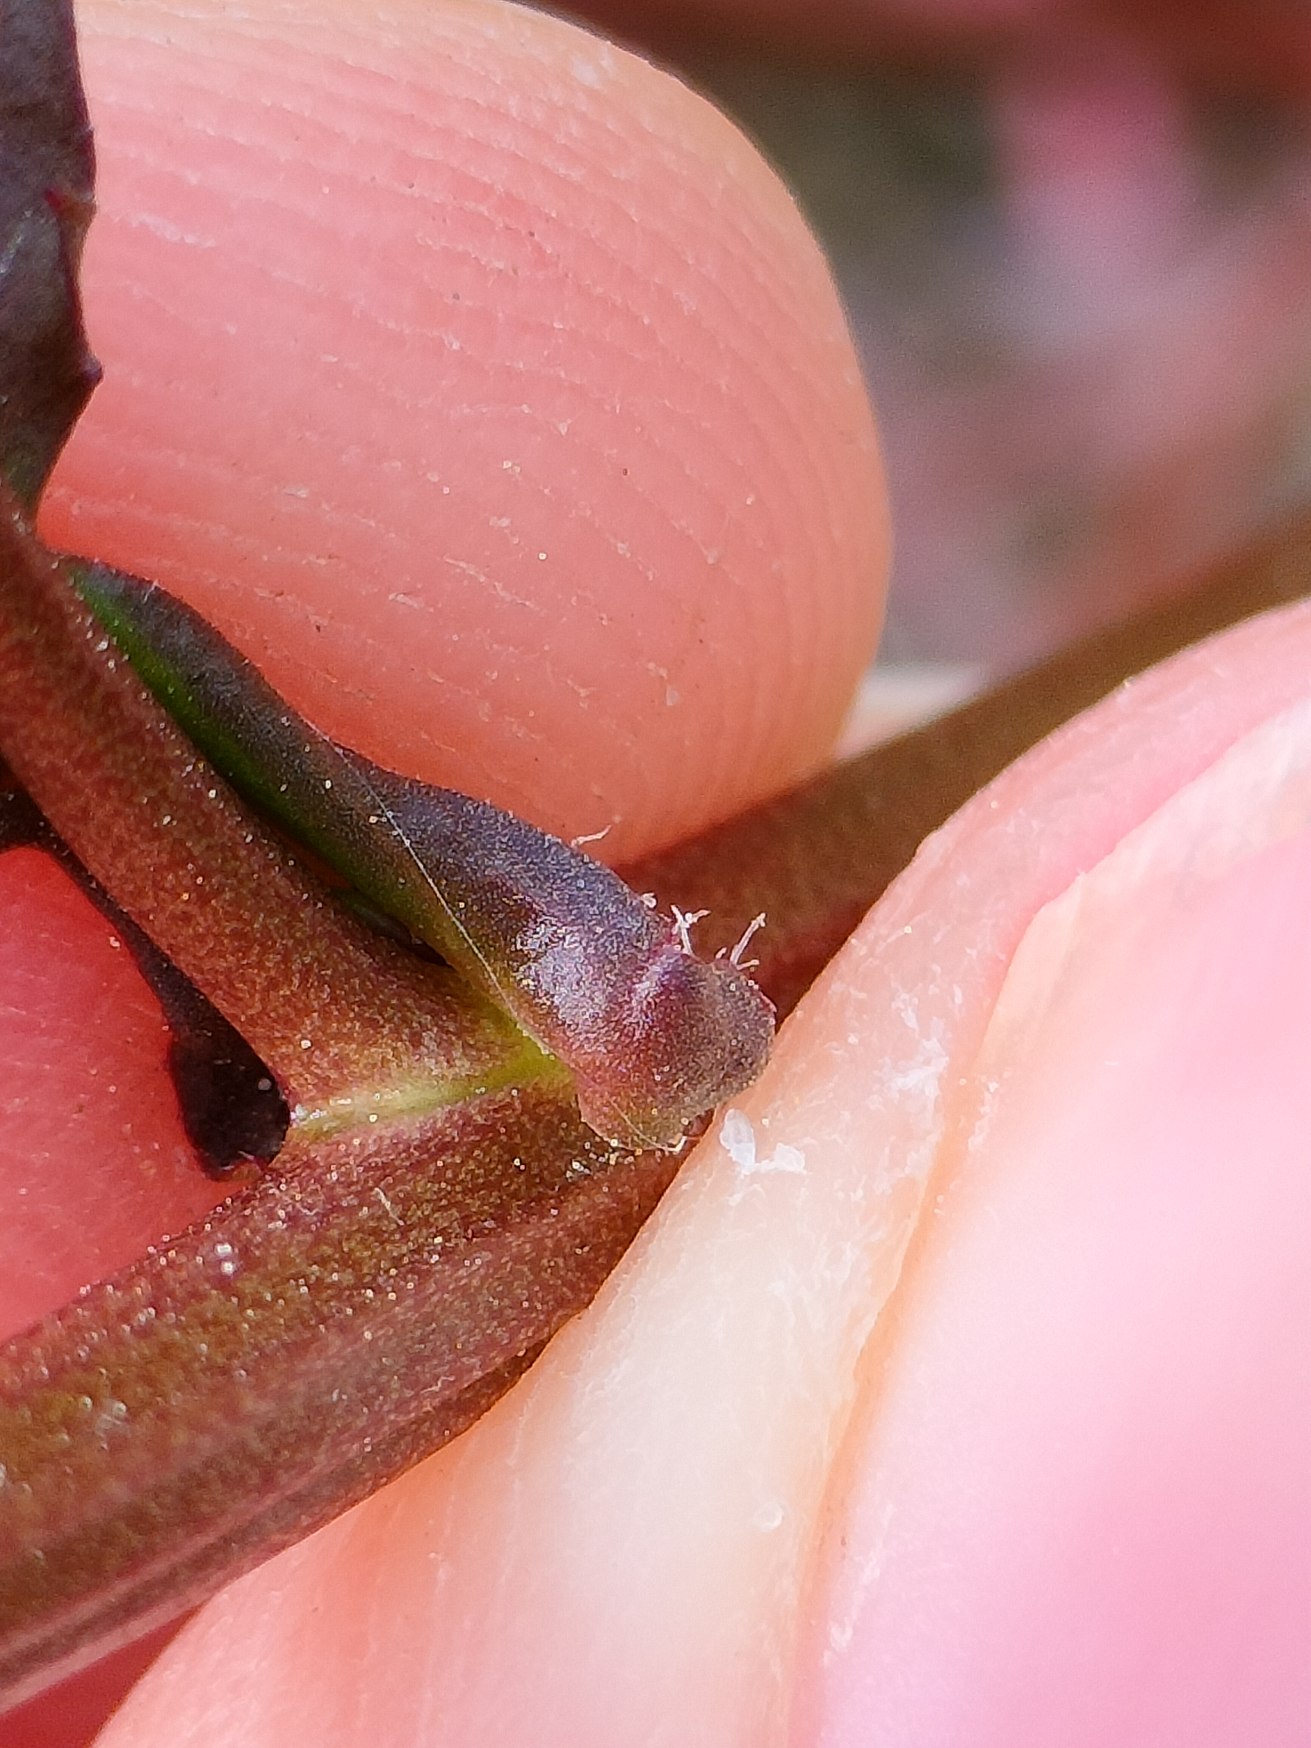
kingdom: Plantae
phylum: Tracheophyta
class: Magnoliopsida
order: Brassicales
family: Brassicaceae
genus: Rorippa
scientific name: Rorippa palustris
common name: Kær-guldkarse
